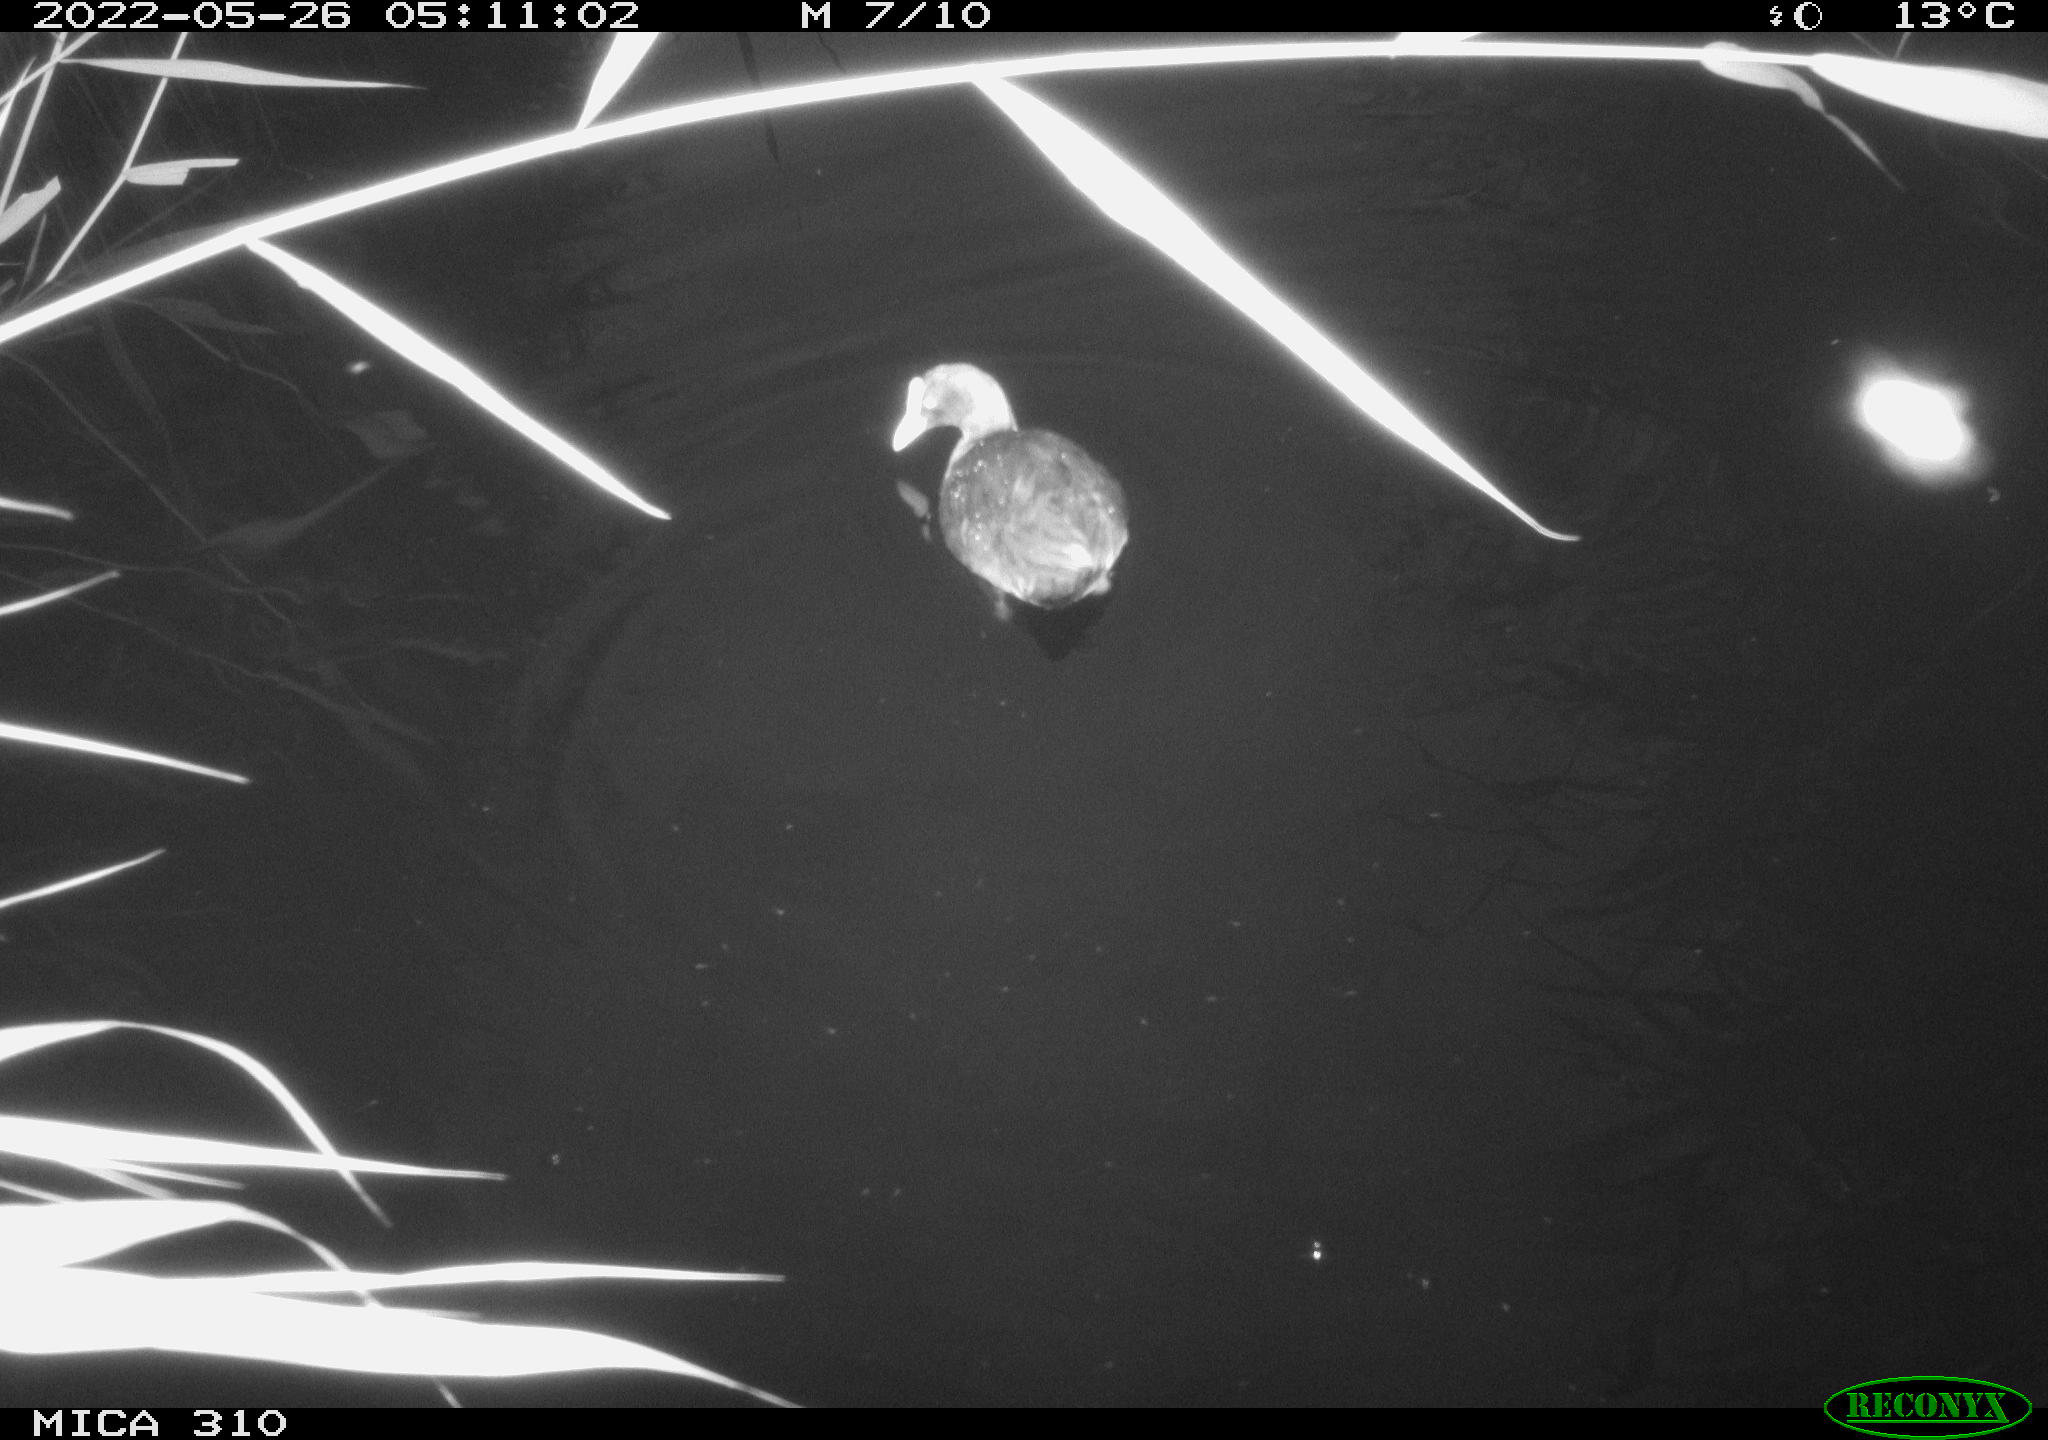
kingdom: Animalia
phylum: Chordata
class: Aves
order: Gruiformes
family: Rallidae
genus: Fulica
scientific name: Fulica atra
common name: Eurasian coot
